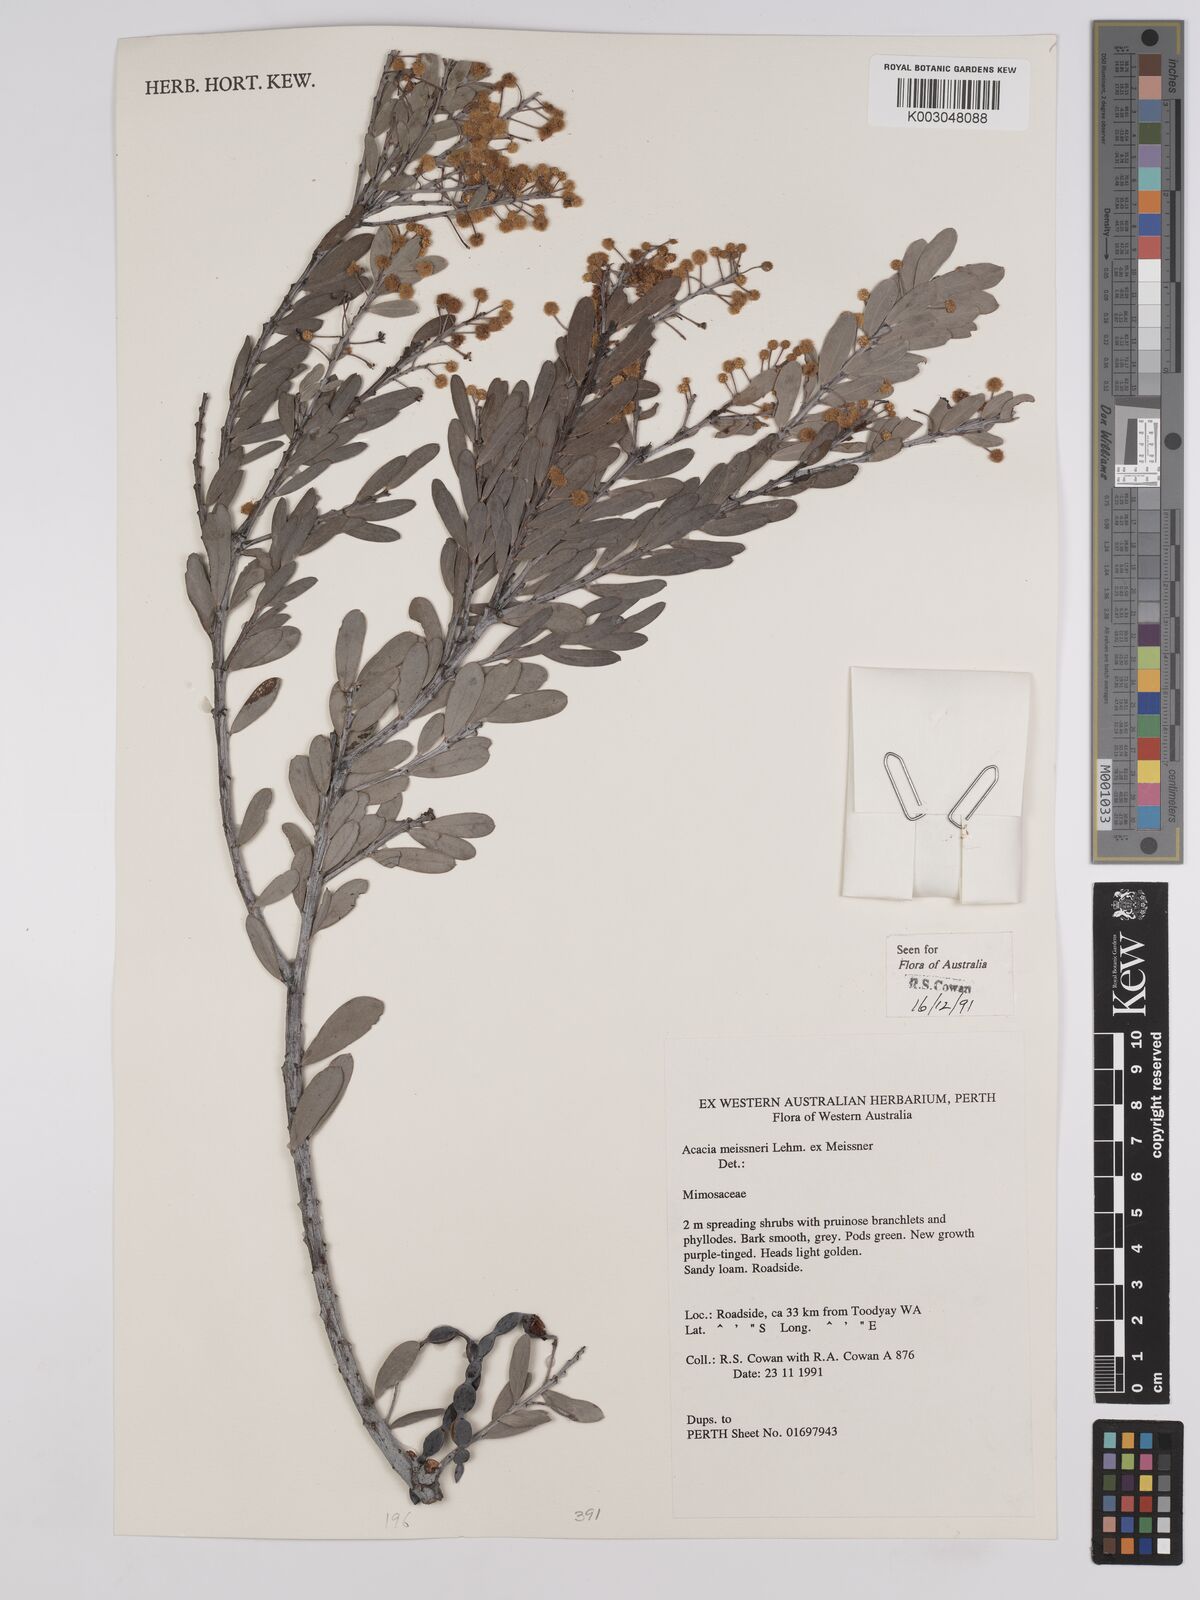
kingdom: Plantae
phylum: Tracheophyta
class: Magnoliopsida
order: Fabales
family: Fabaceae
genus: Acacia
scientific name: Acacia meisneri
